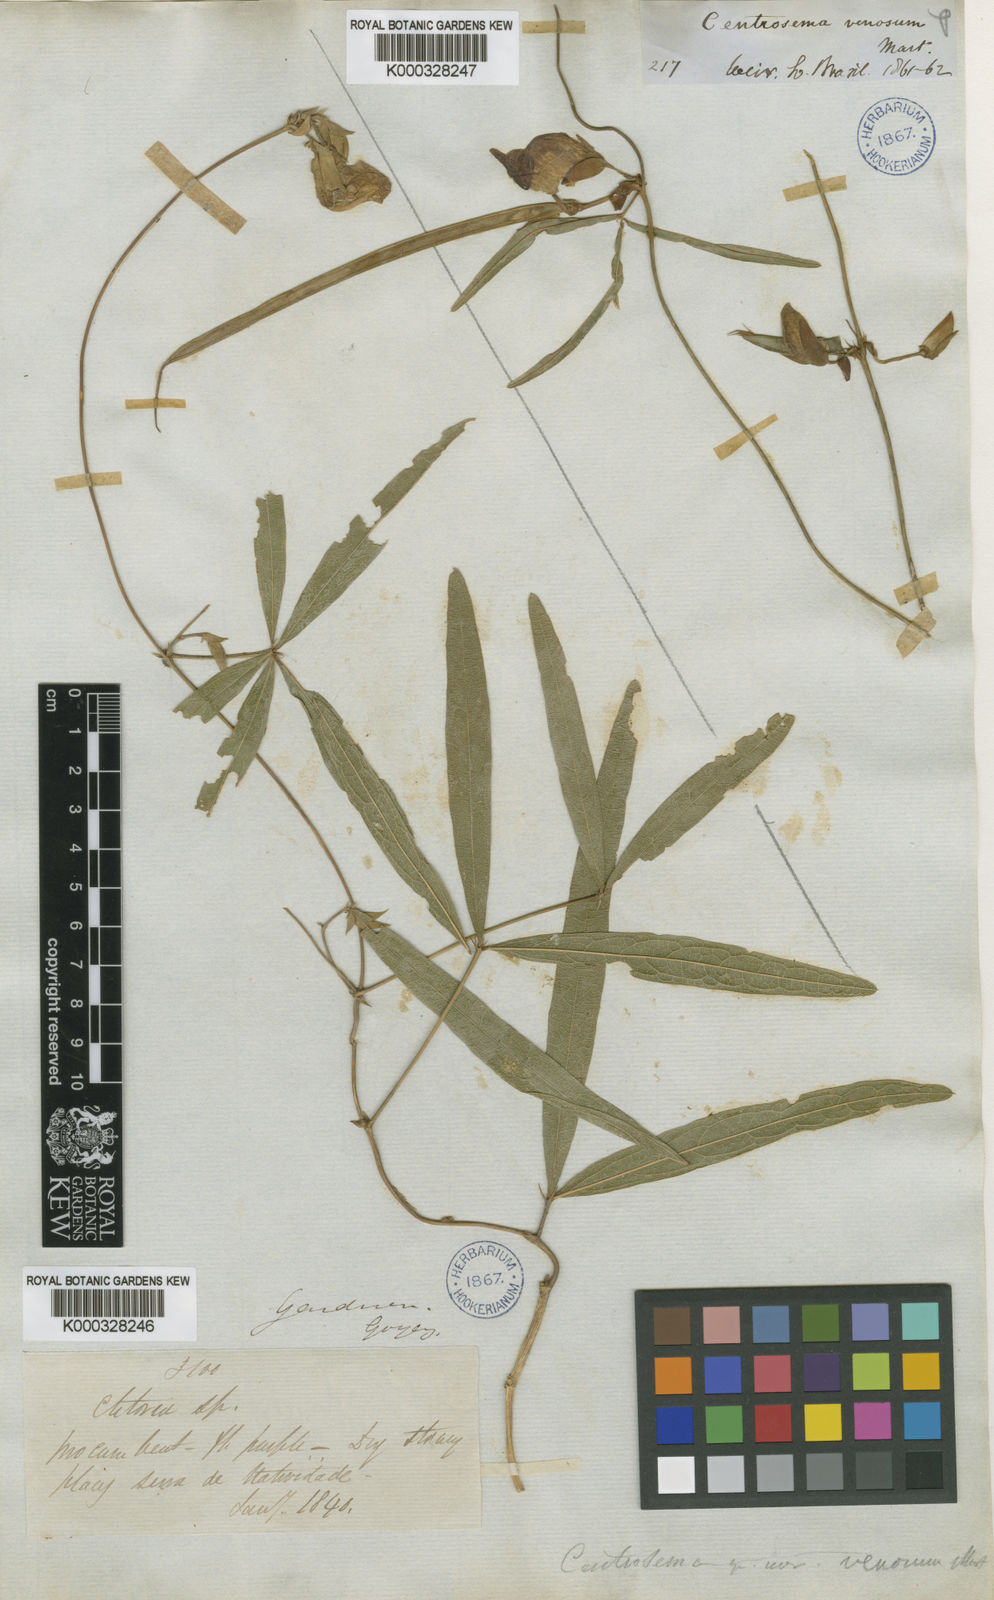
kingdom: Plantae
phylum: Tracheophyta
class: Magnoliopsida
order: Fabales
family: Fabaceae
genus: Centrosema
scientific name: Centrosema venosum
